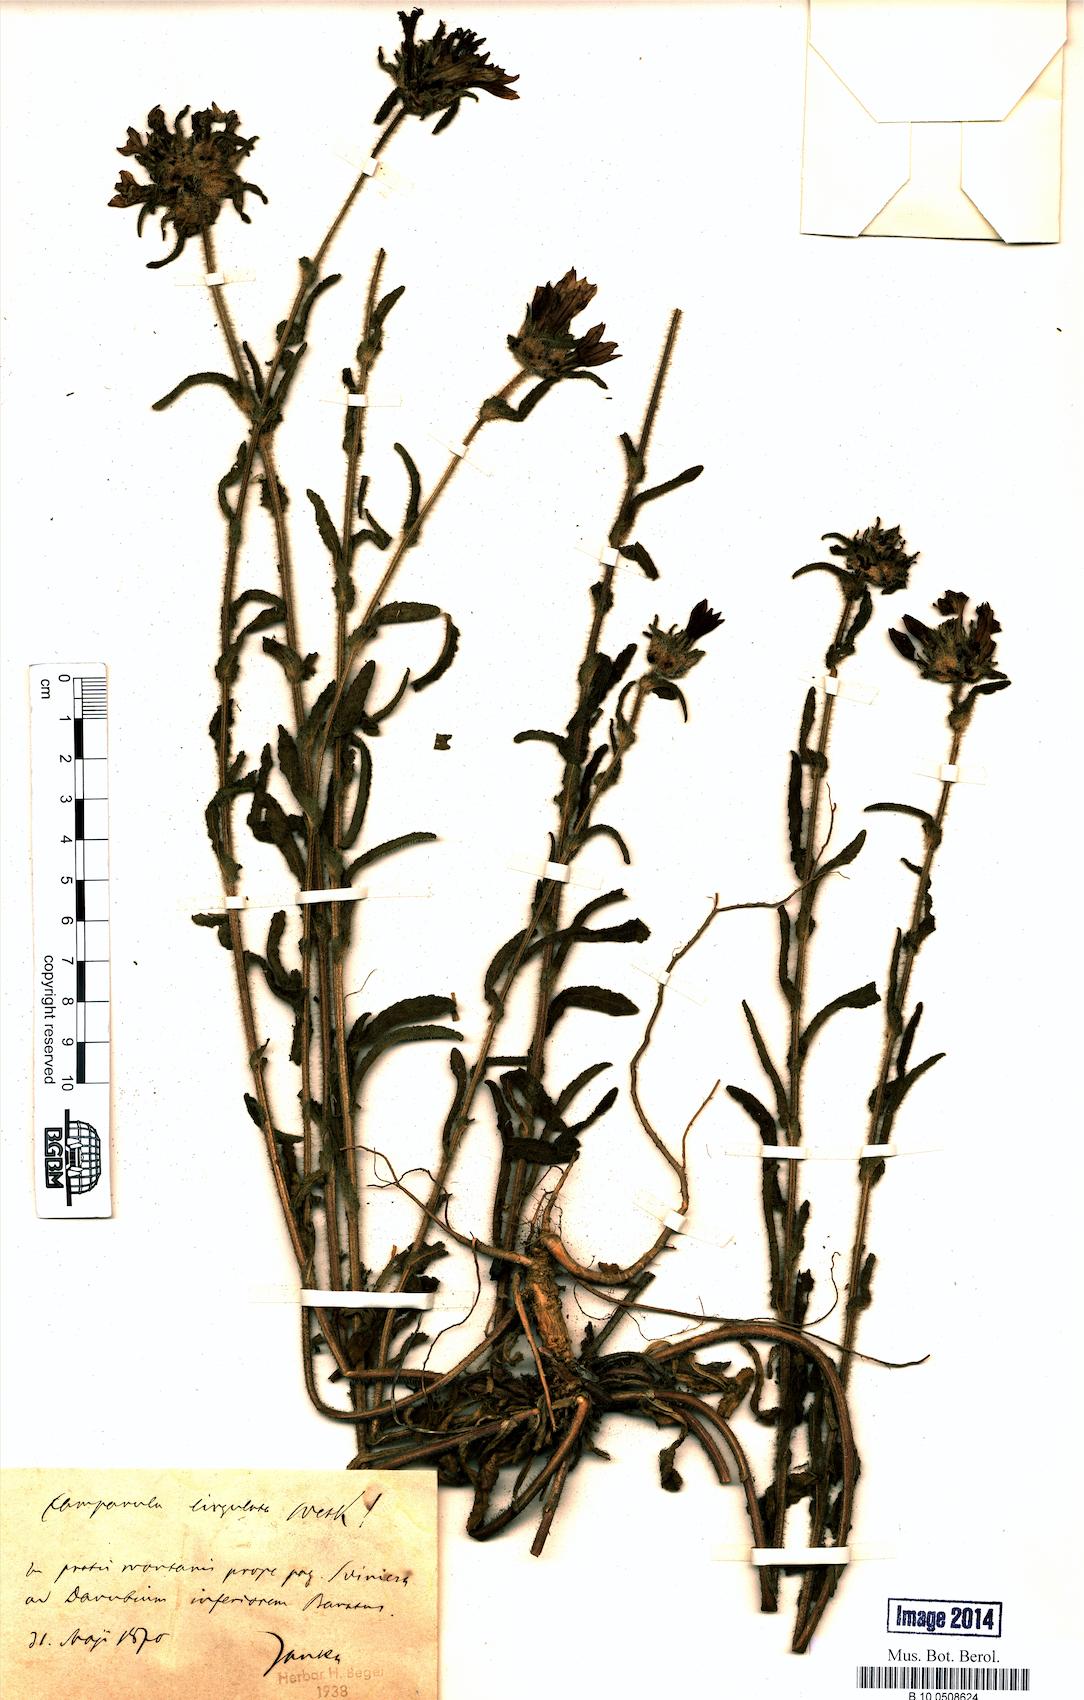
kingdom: Plantae
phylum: Tracheophyta
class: Magnoliopsida
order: Asterales
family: Campanulaceae
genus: Campanula
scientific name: Campanula lingulata
